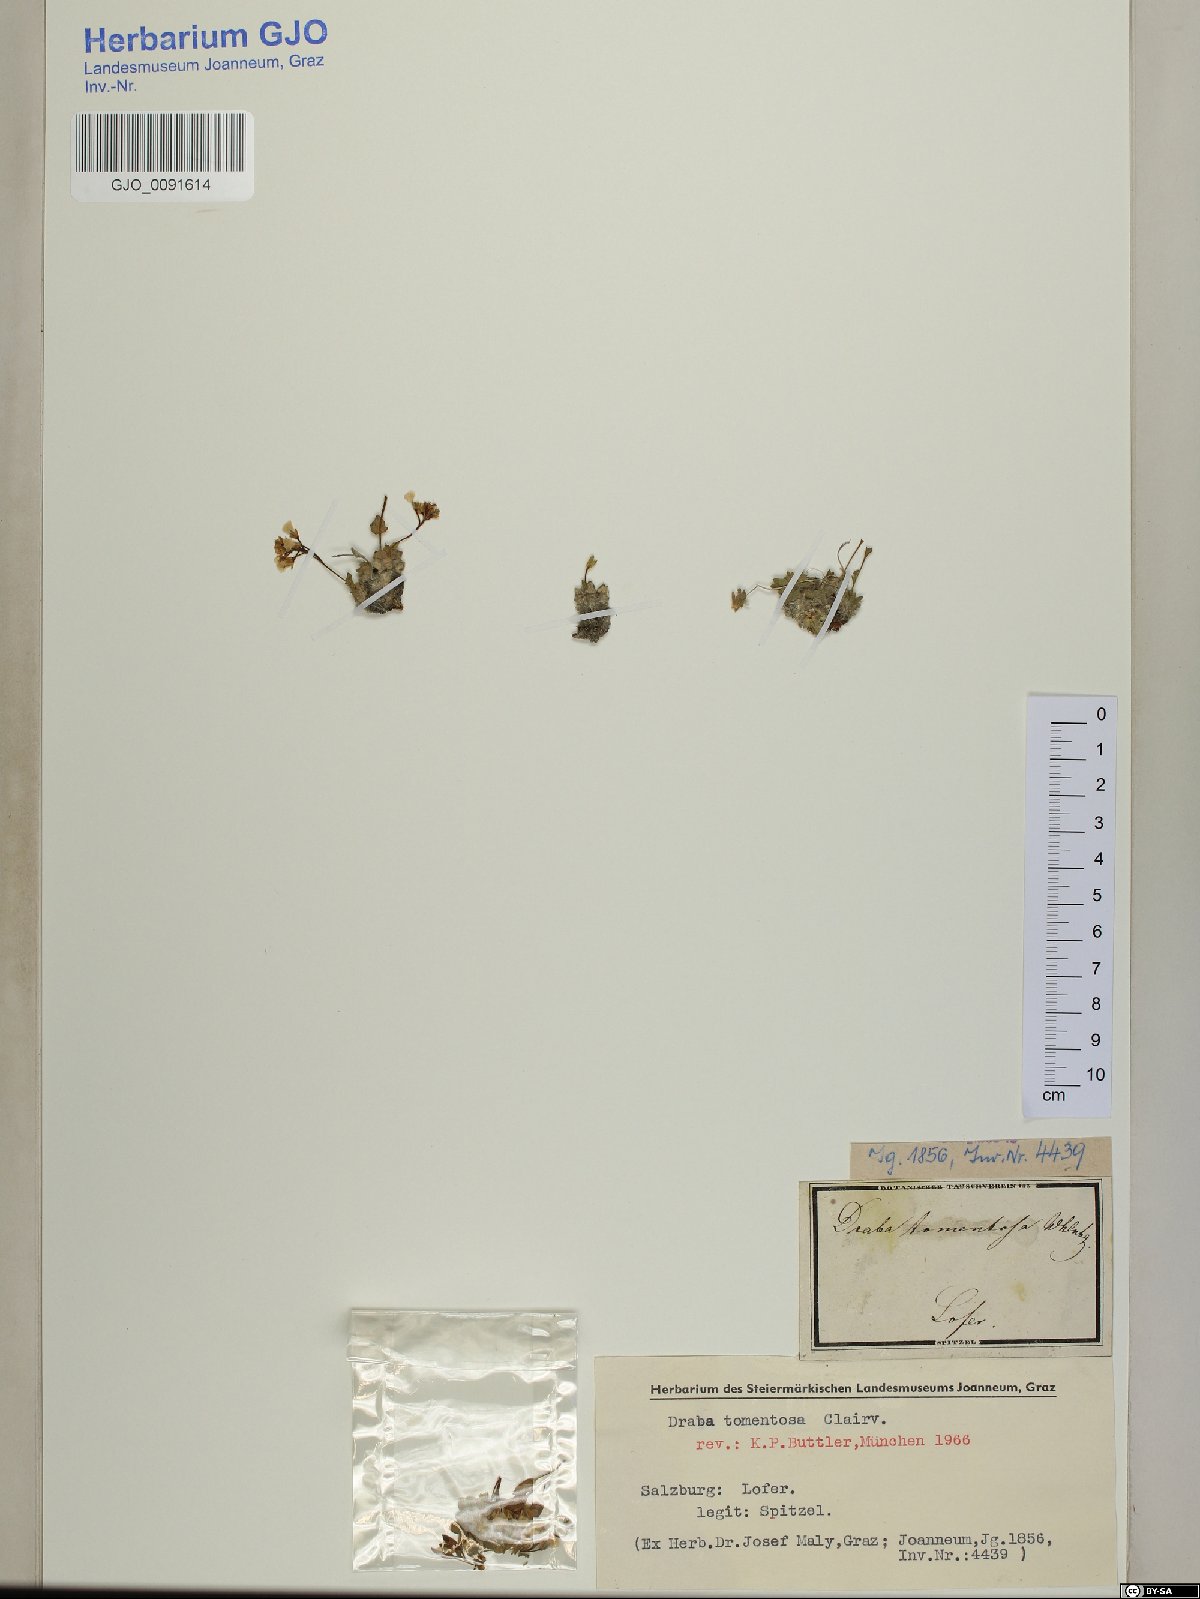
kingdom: Plantae
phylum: Tracheophyta
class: Magnoliopsida
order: Brassicales
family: Brassicaceae
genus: Draba
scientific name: Draba tomentosa
